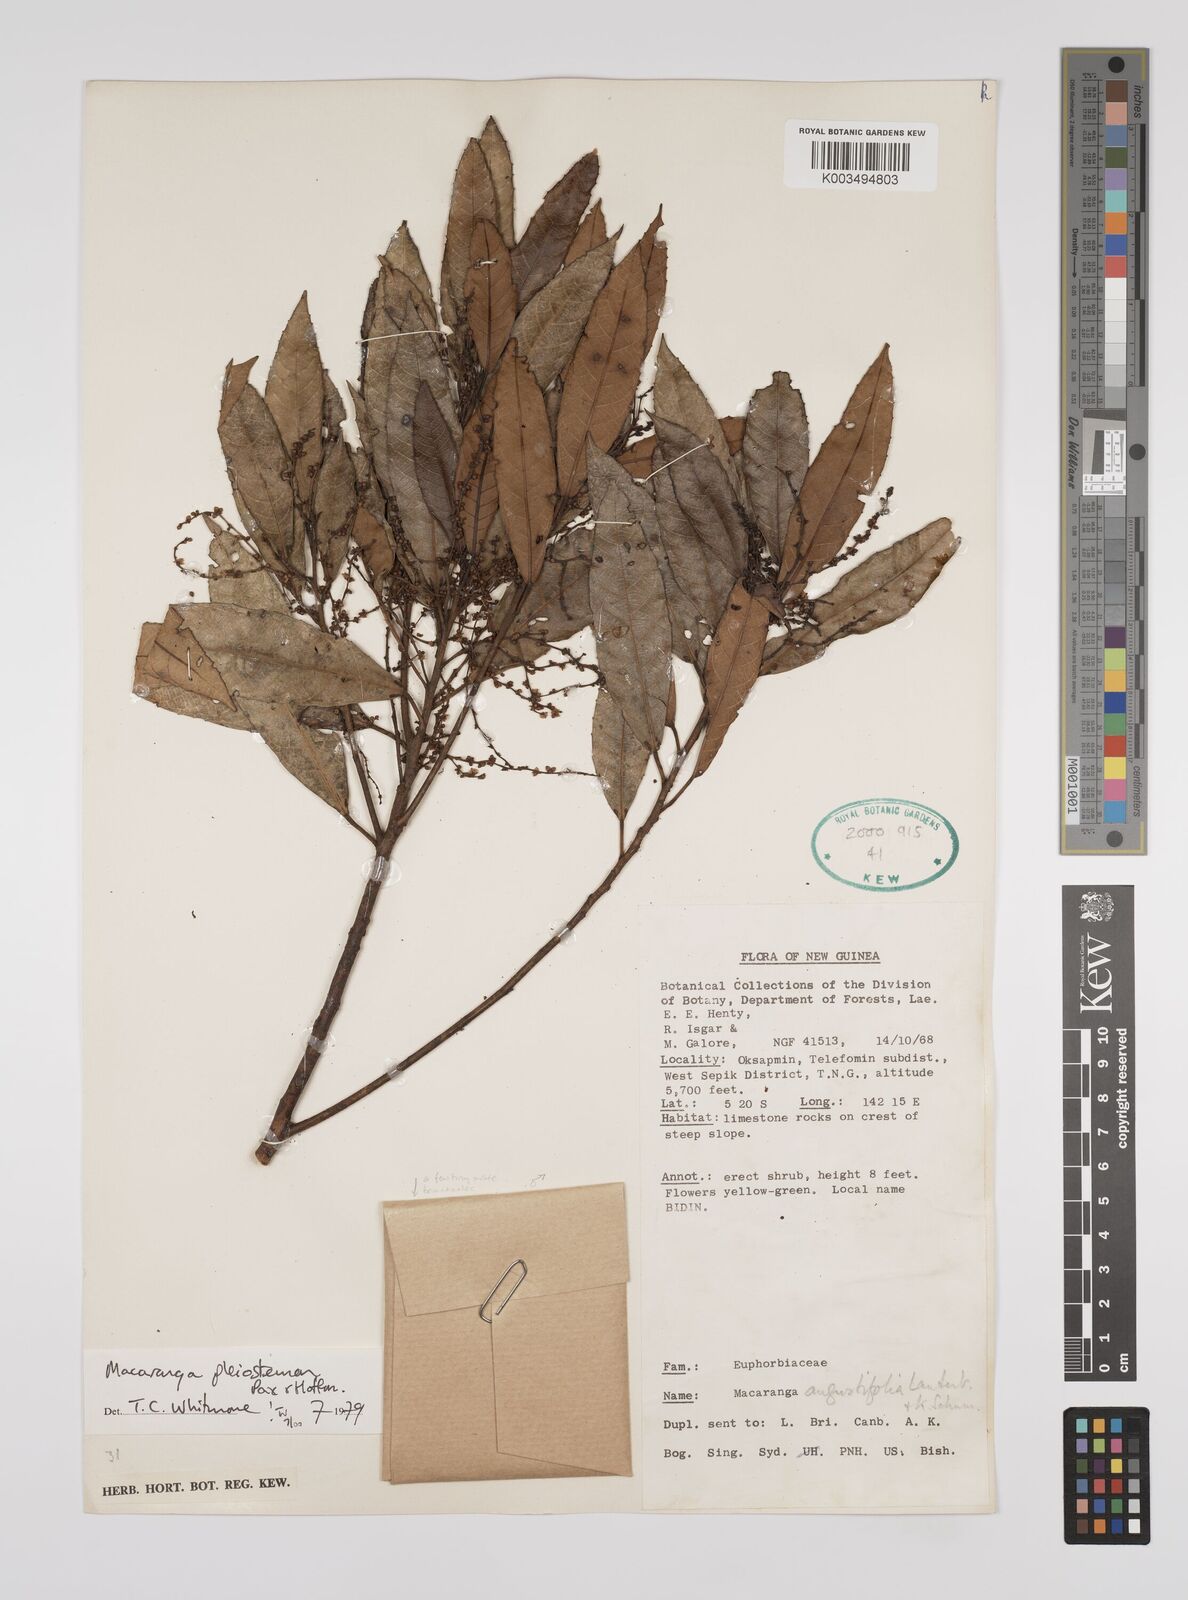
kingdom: Plantae
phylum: Tracheophyta
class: Magnoliopsida
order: Malpighiales
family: Euphorbiaceae
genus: Macaranga
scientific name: Macaranga pleiostemon
